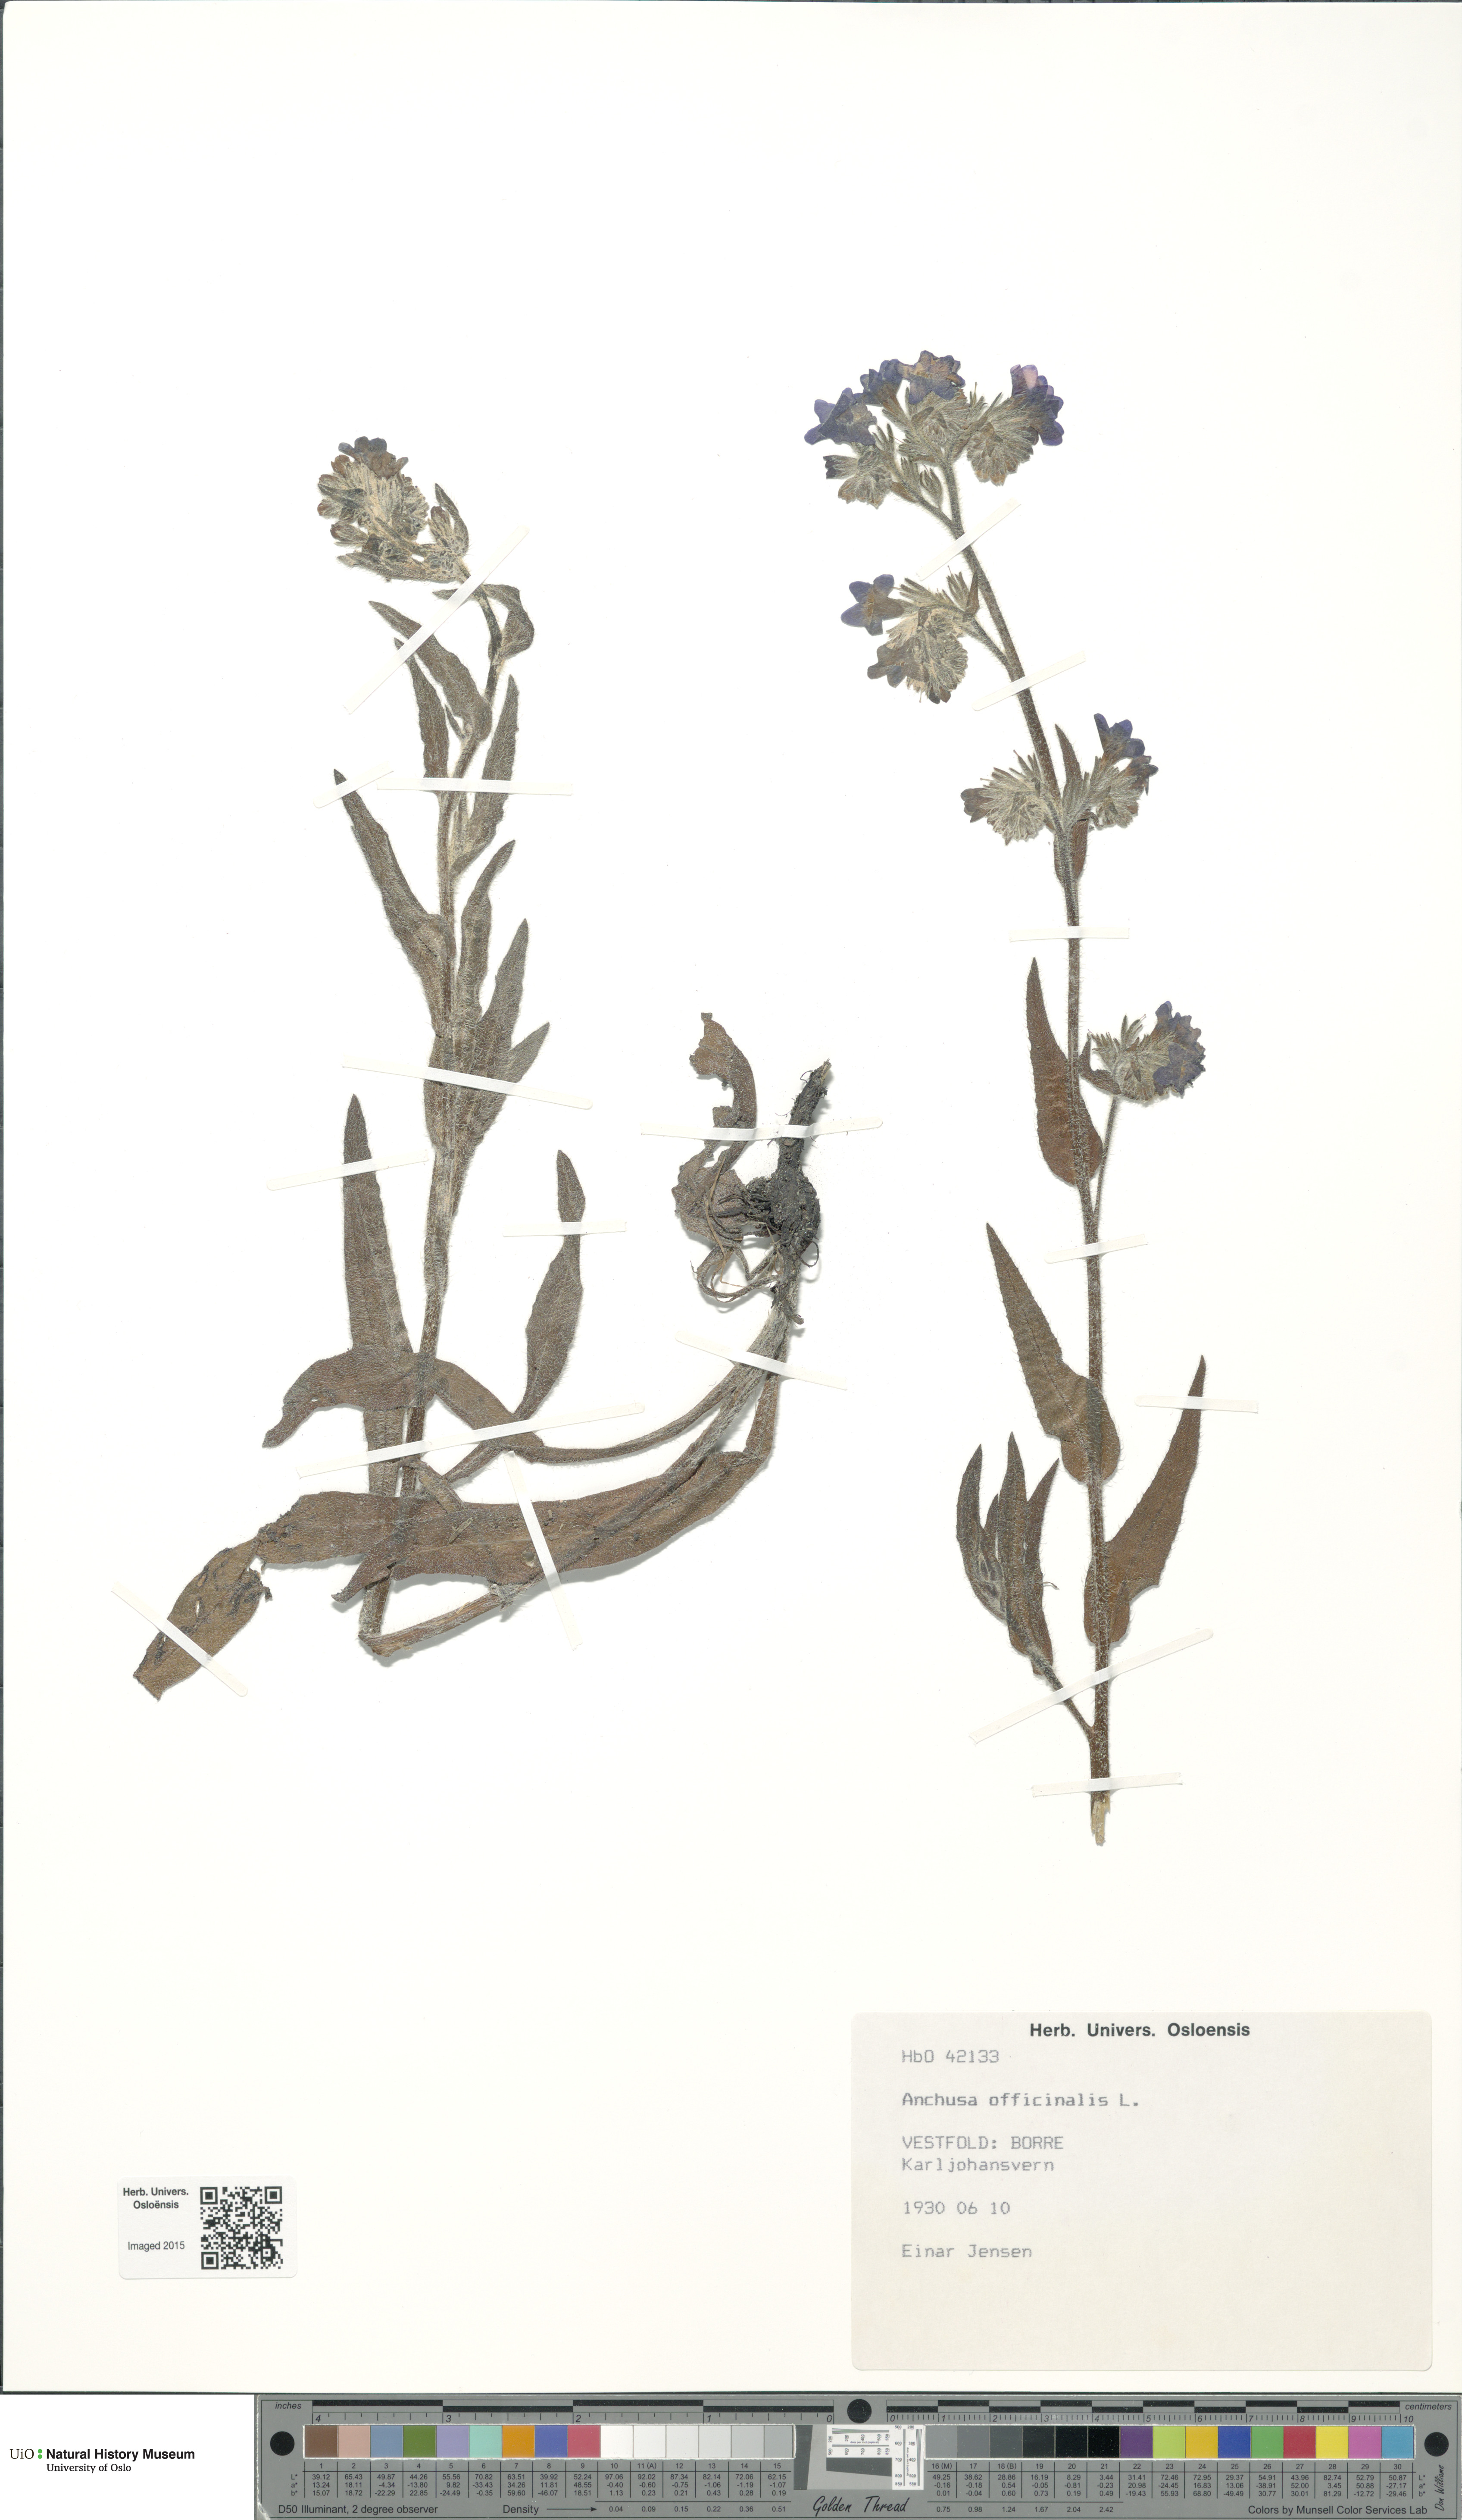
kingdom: Plantae
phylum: Tracheophyta
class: Magnoliopsida
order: Boraginales
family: Boraginaceae
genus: Anchusa
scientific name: Anchusa officinalis
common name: Alkanet
